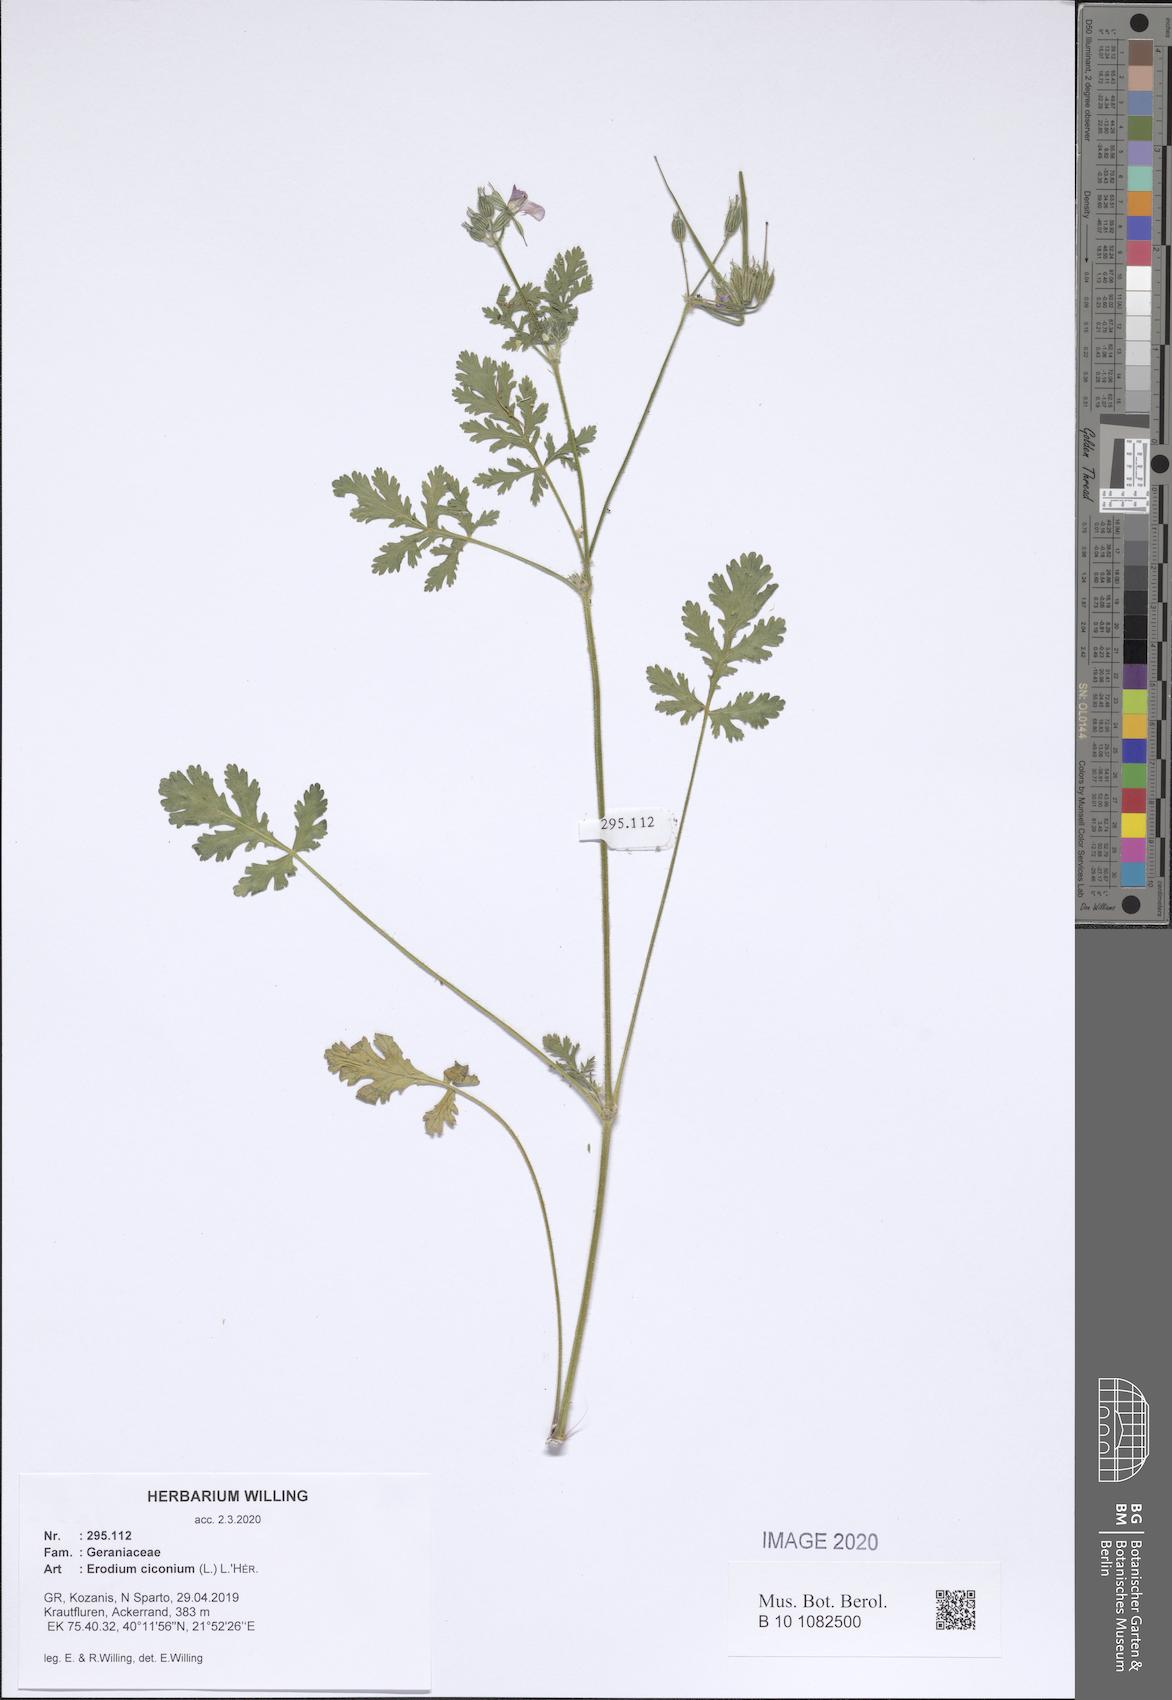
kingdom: Plantae
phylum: Tracheophyta
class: Magnoliopsida
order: Geraniales
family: Geraniaceae
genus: Erodium
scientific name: Erodium ciconium
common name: Common stork's bill
